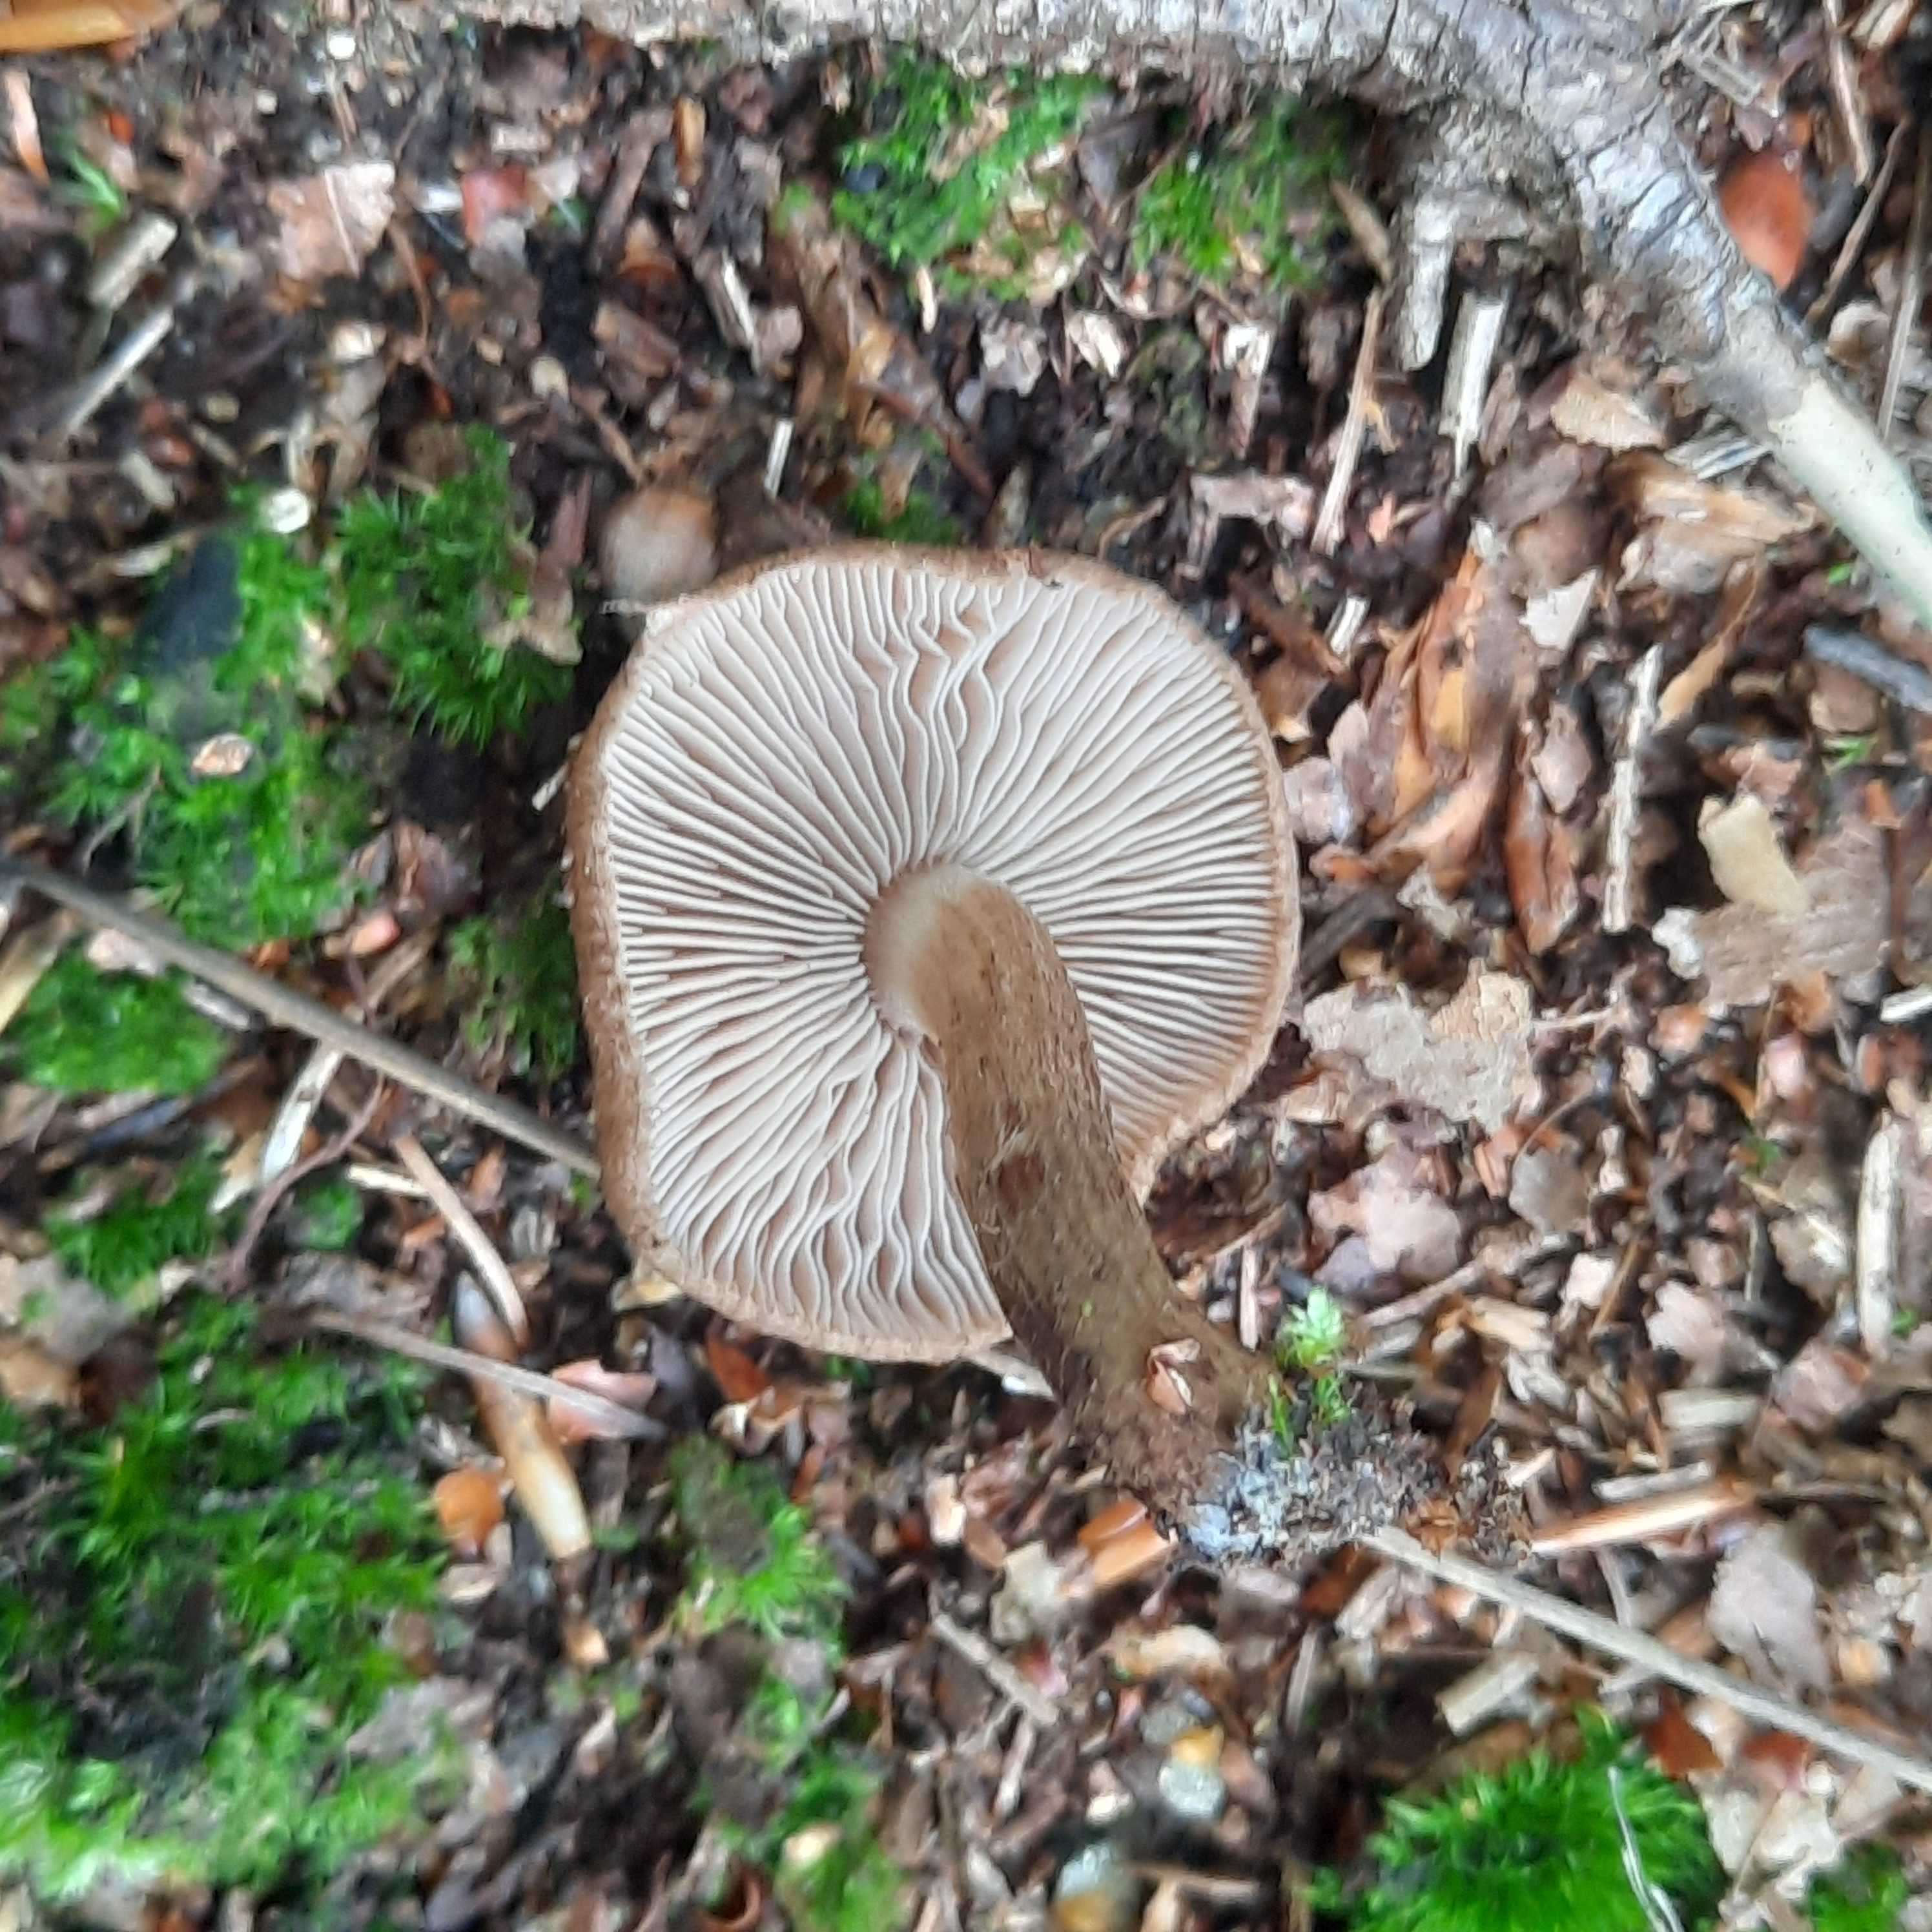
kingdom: Fungi
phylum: Basidiomycota
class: Agaricomycetes
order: Agaricales
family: Inocybaceae
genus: Inocybe
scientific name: Inocybe
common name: trævlhat
